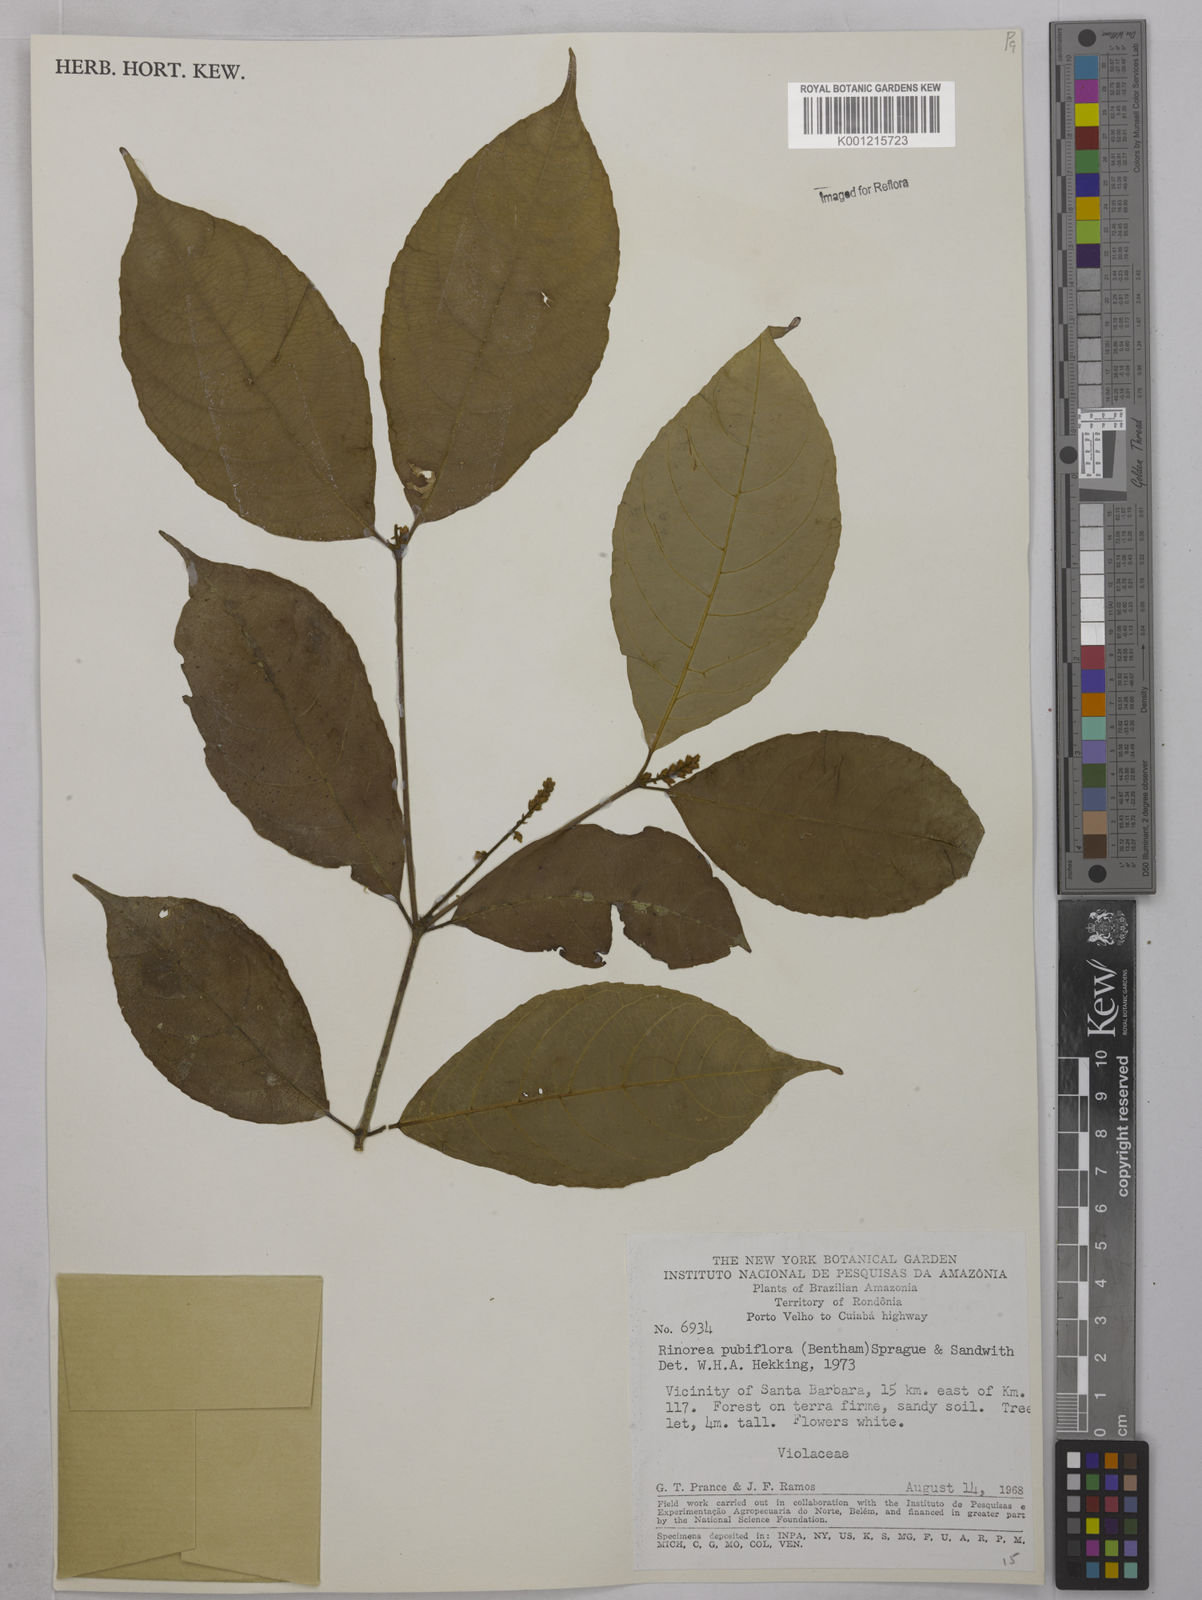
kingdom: Plantae
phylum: Tracheophyta
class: Magnoliopsida
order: Malpighiales
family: Violaceae
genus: Rinorea
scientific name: Rinorea pubiflora
